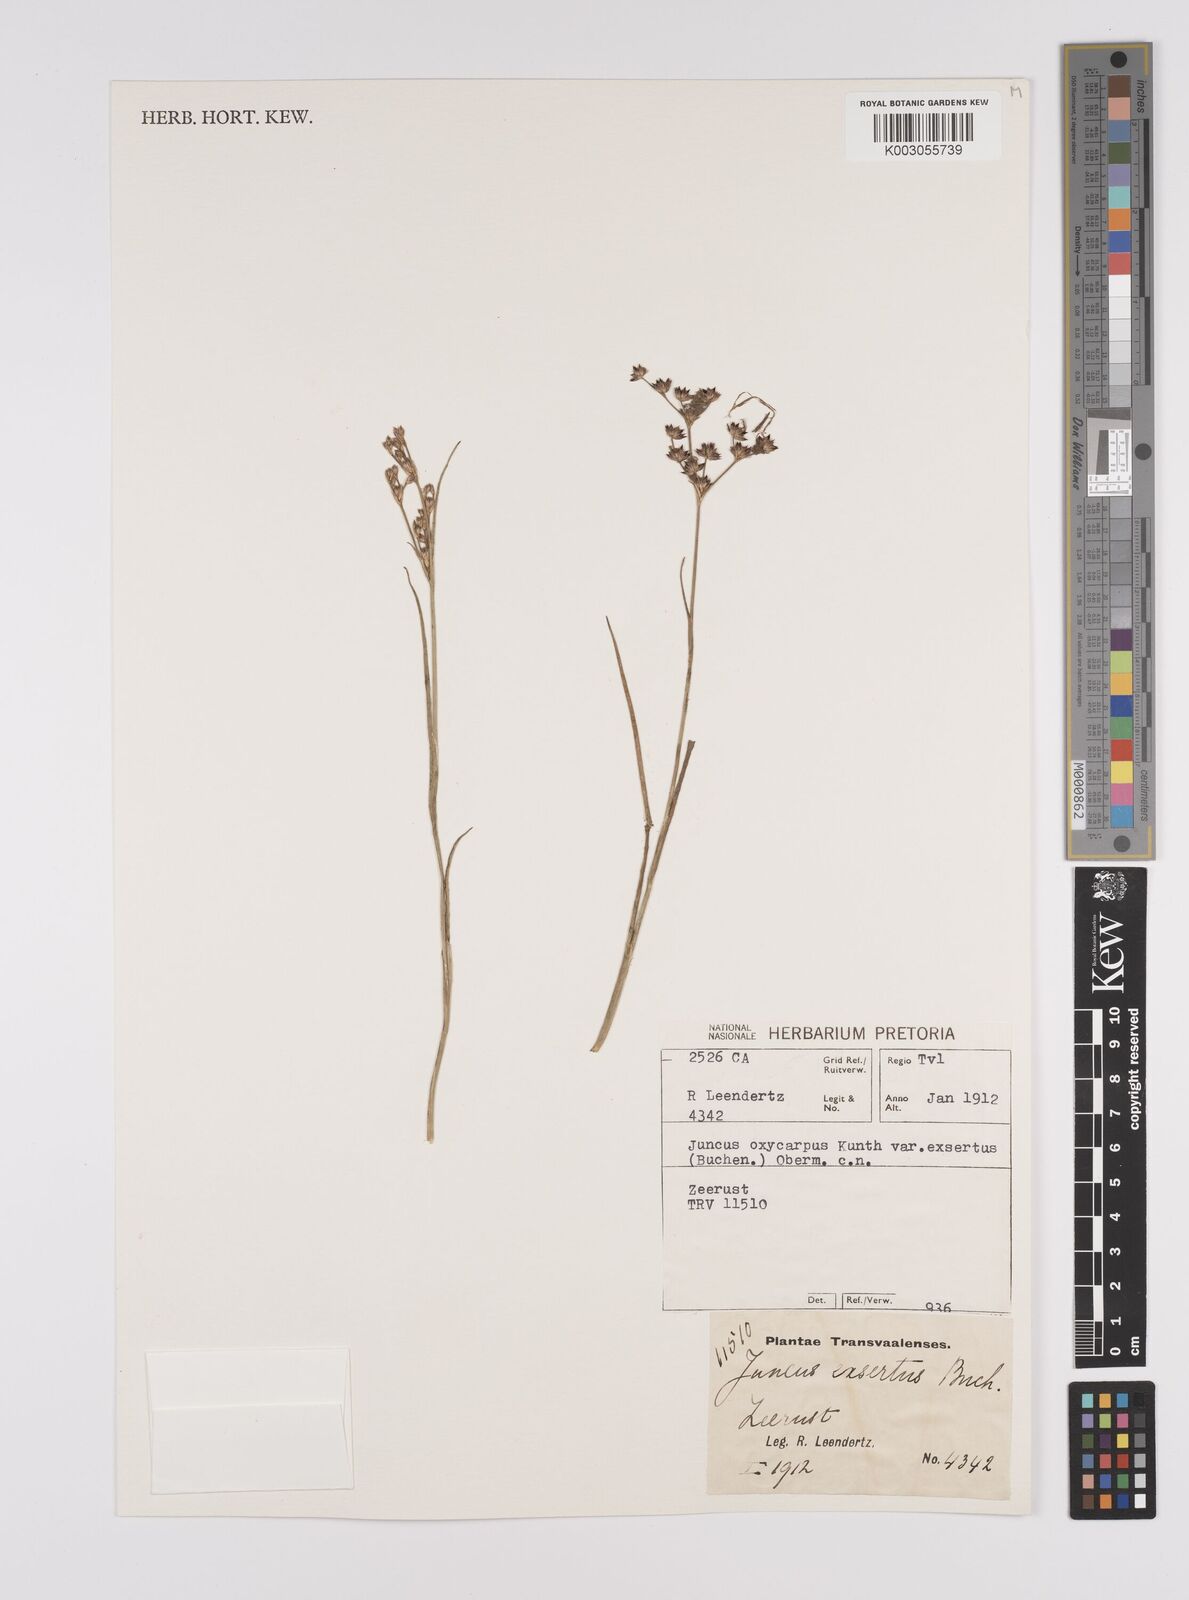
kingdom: Plantae
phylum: Tracheophyta
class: Liliopsida
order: Poales
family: Juncaceae
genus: Juncus
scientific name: Juncus exsertus
